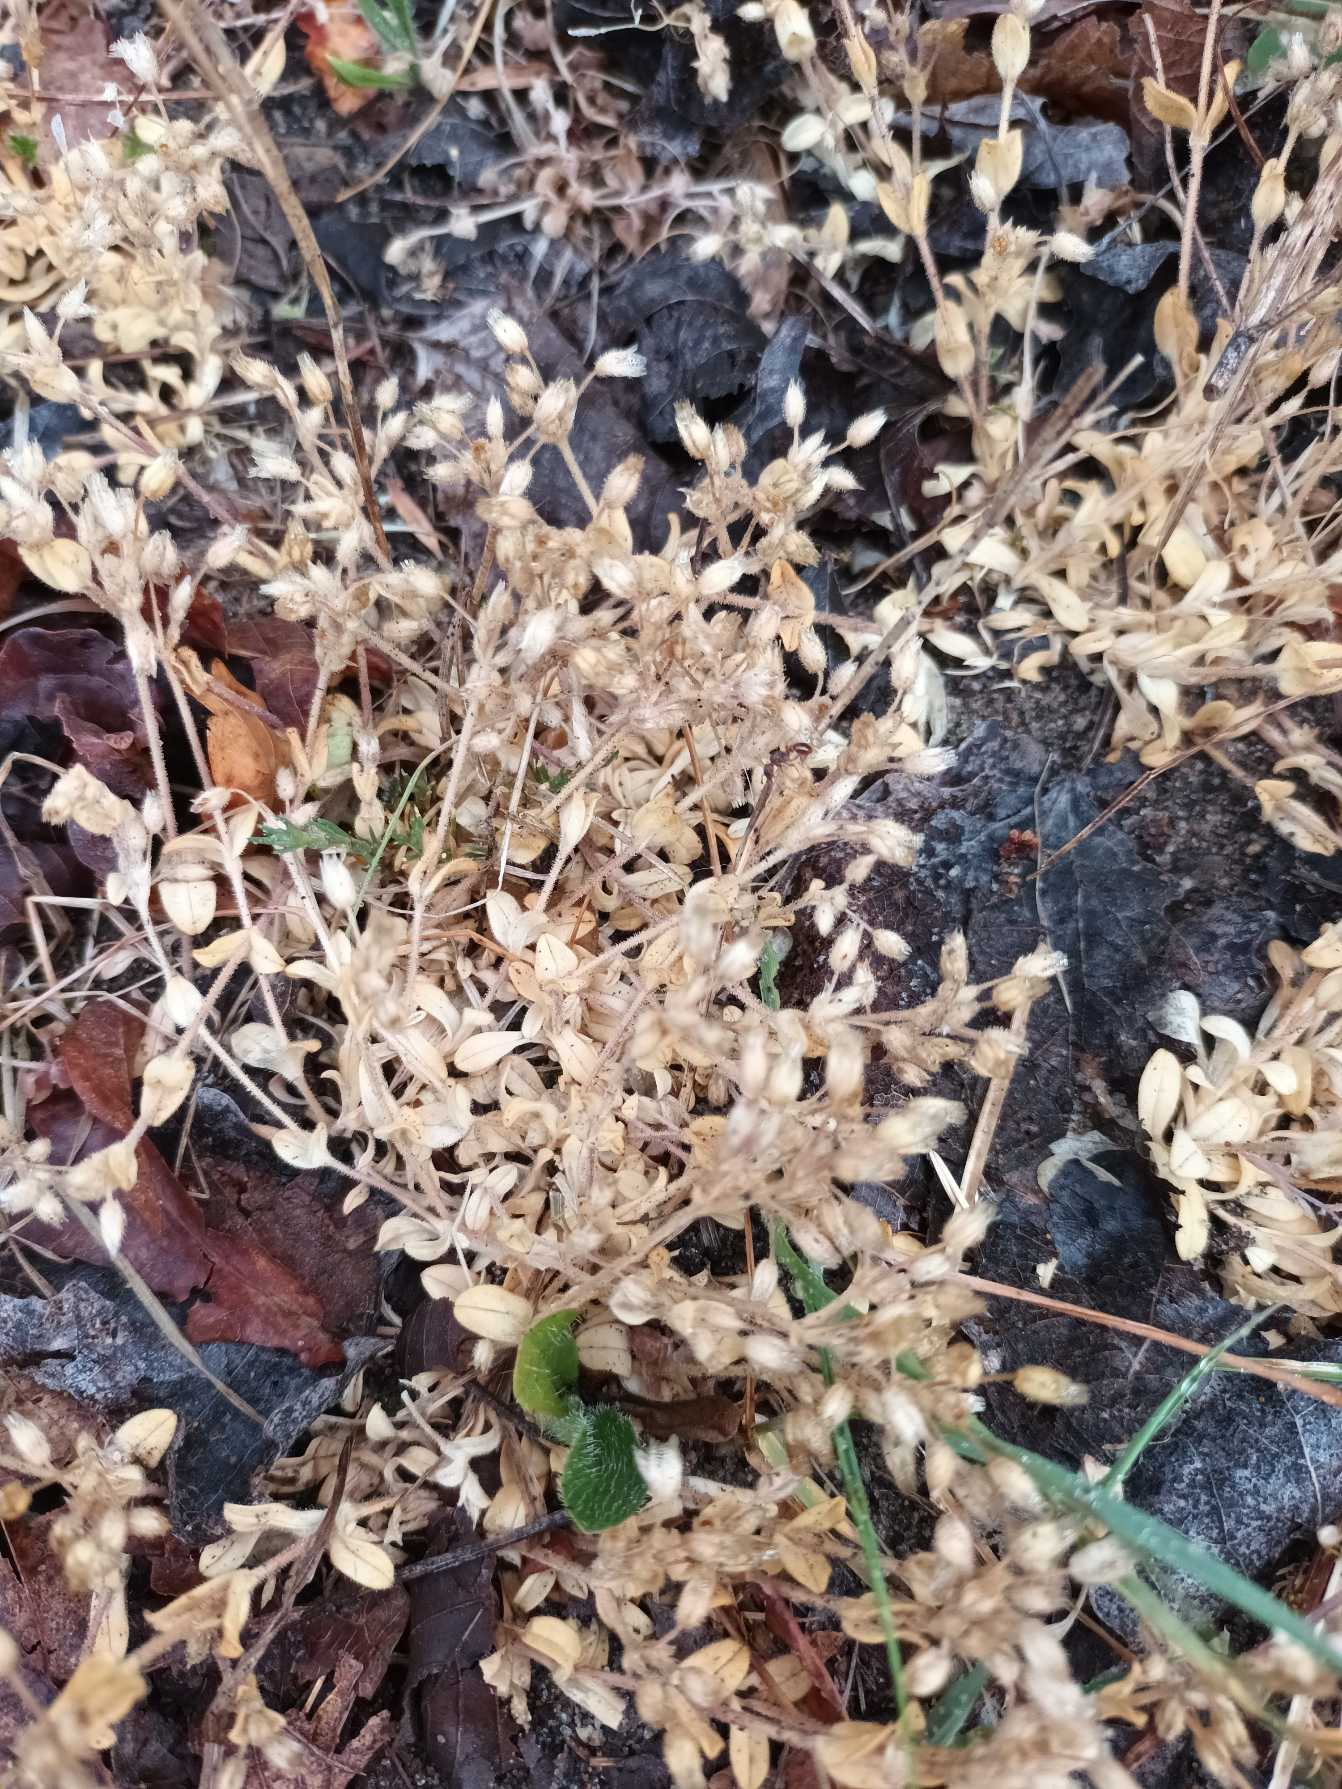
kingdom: Plantae
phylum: Tracheophyta
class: Magnoliopsida
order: Caryophyllales
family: Caryophyllaceae
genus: Cerastium
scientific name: Cerastium semidecandrum
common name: Femhannet hønsetarm
